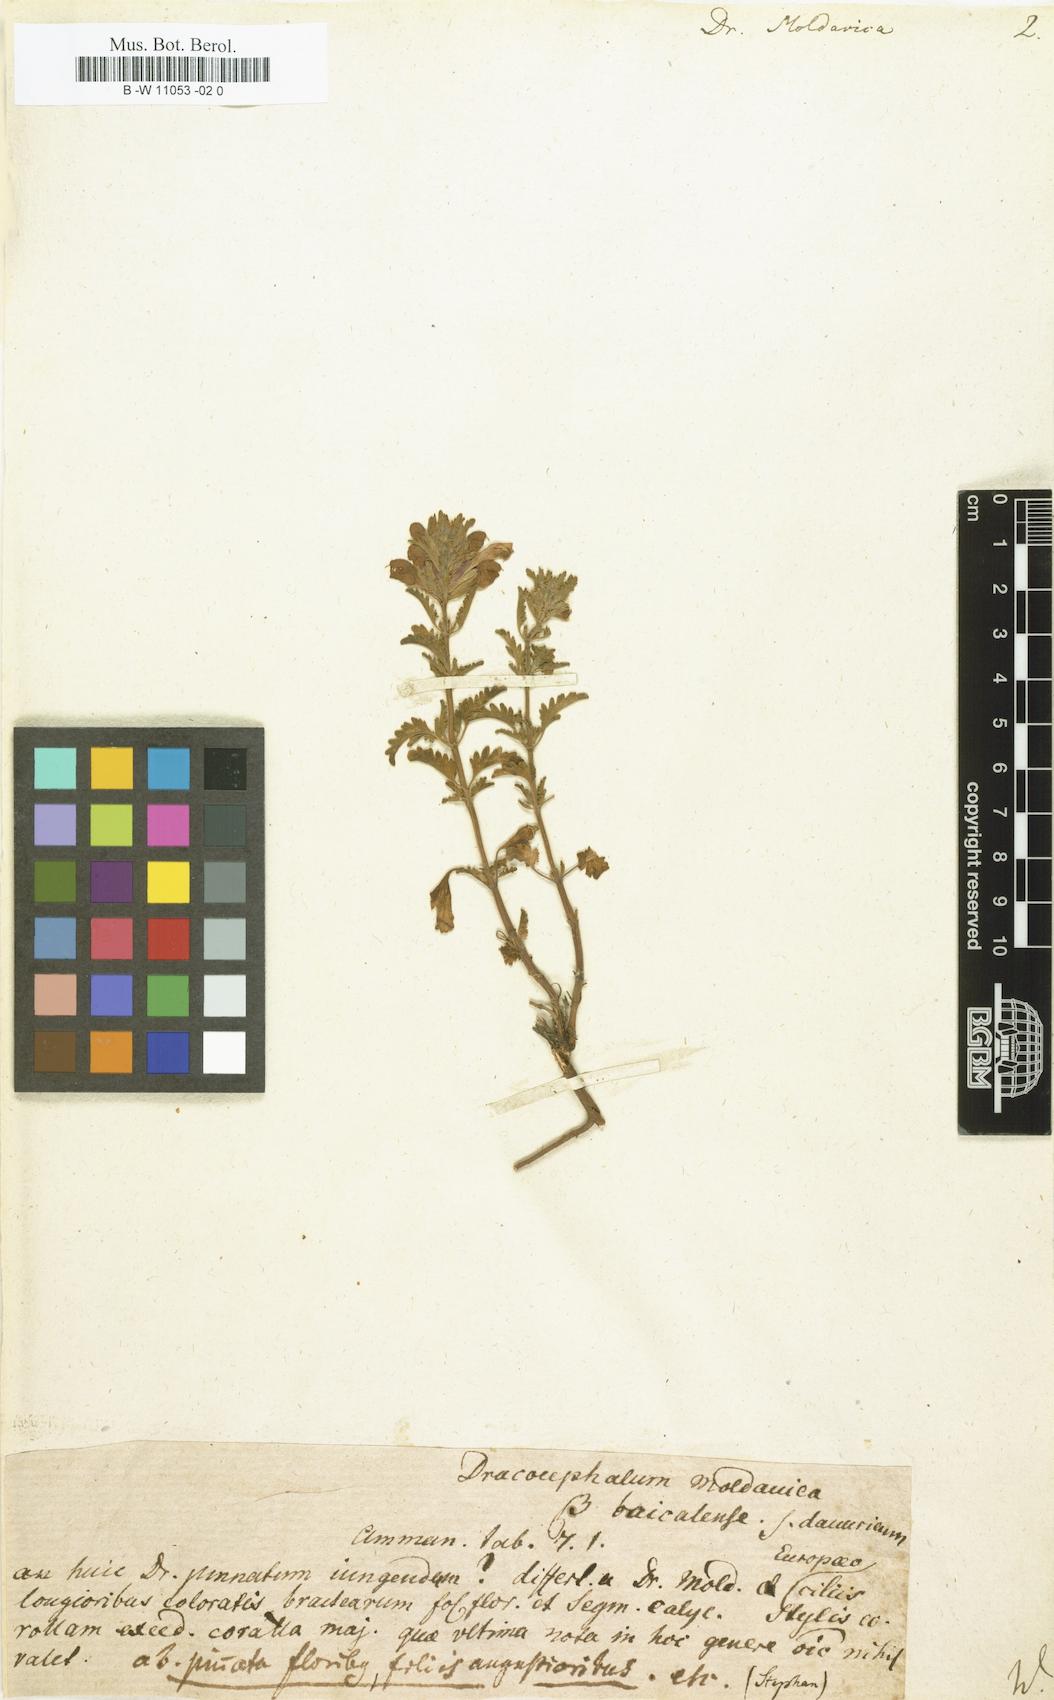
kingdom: Plantae
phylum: Tracheophyta
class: Magnoliopsida
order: Lamiales
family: Lamiaceae
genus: Dracocephalum
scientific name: Dracocephalum moldavica
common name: Moldavian dragonhead
